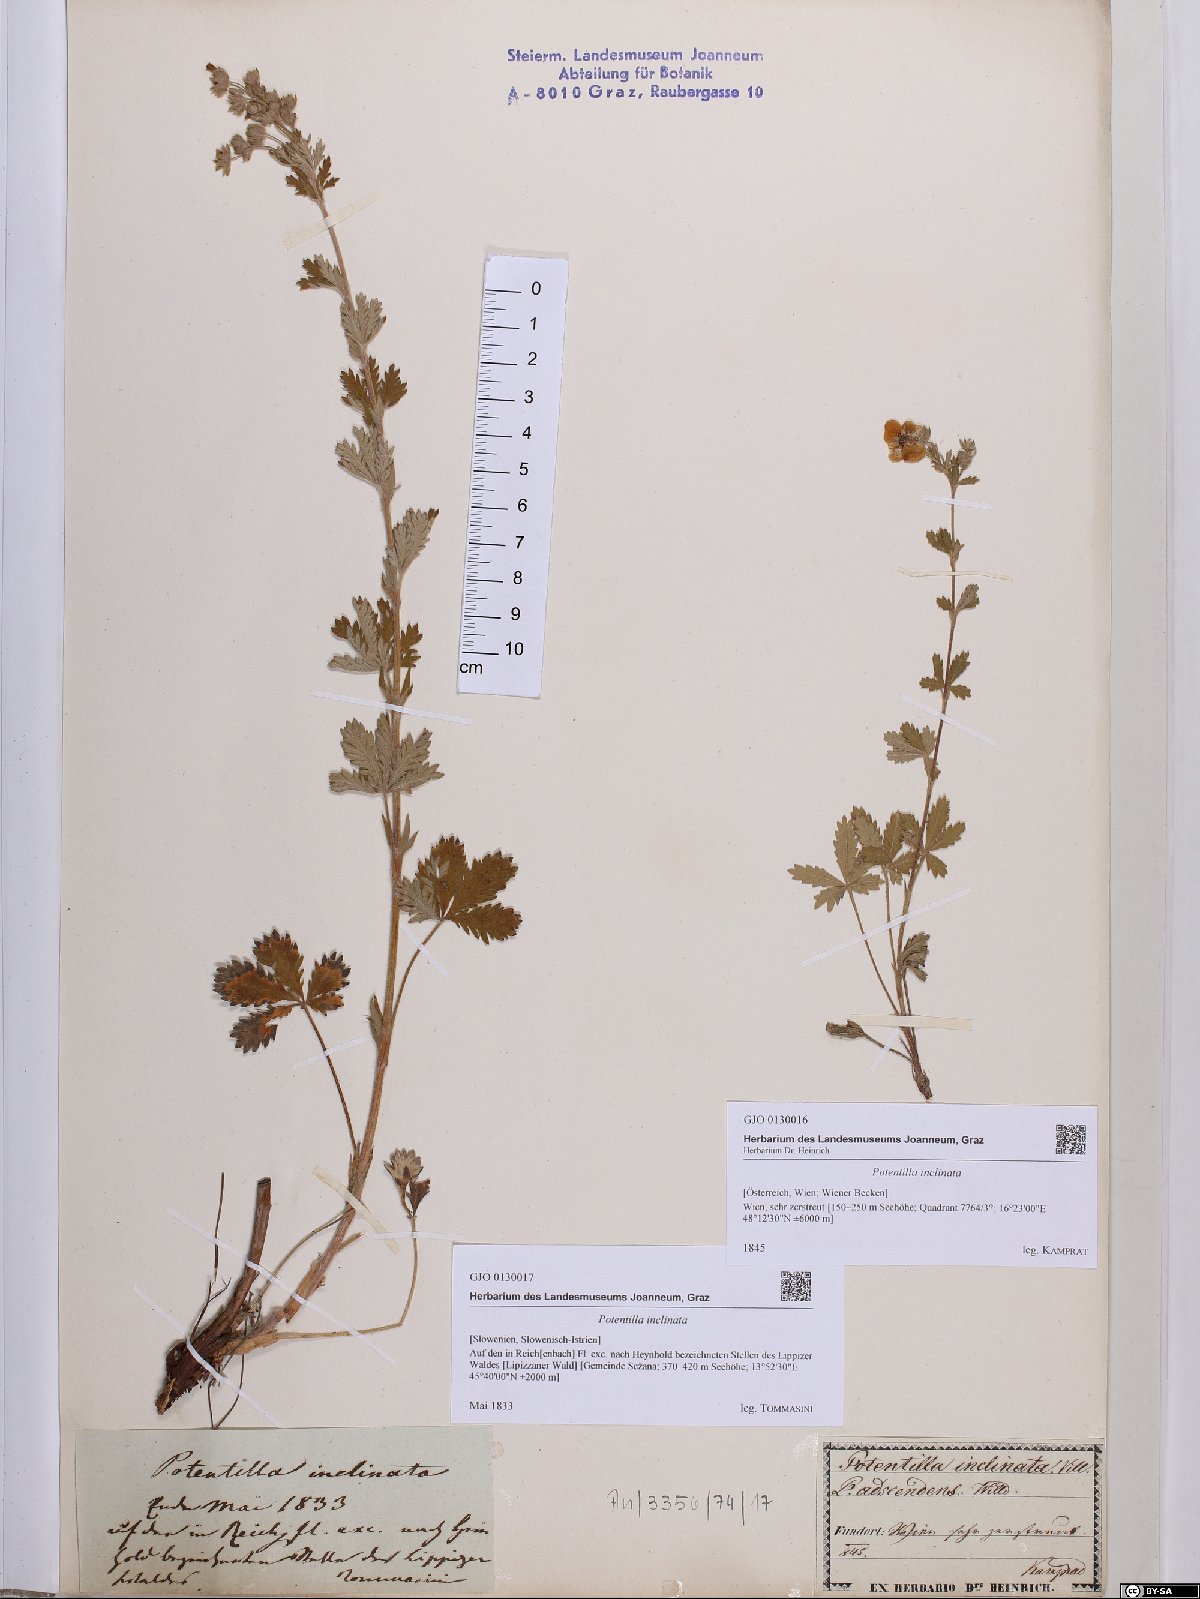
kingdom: Plantae
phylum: Tracheophyta
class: Magnoliopsida
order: Rosales
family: Rosaceae
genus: Potentilla
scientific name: Potentilla inclinata
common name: Grey cinquefoil
